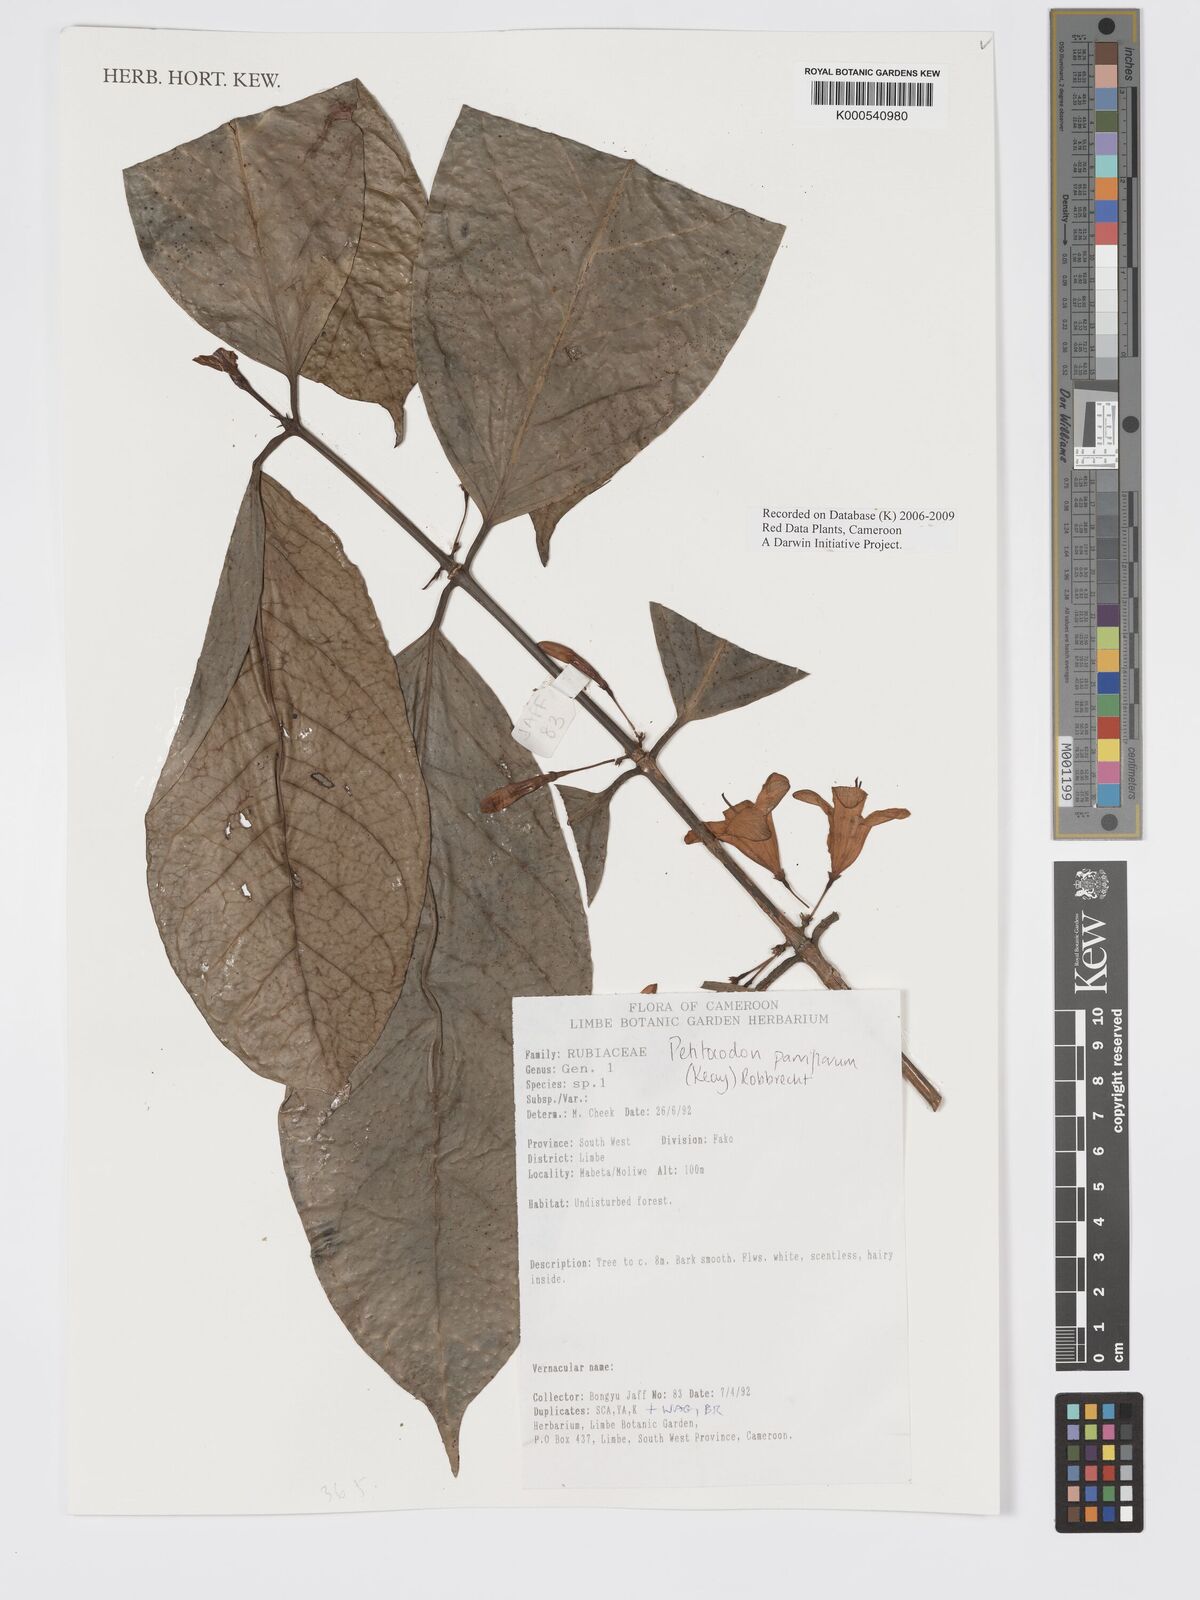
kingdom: Plantae
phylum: Tracheophyta
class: Magnoliopsida
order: Gentianales
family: Rubiaceae
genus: Petitiocodon
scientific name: Petitiocodon parviflorum
